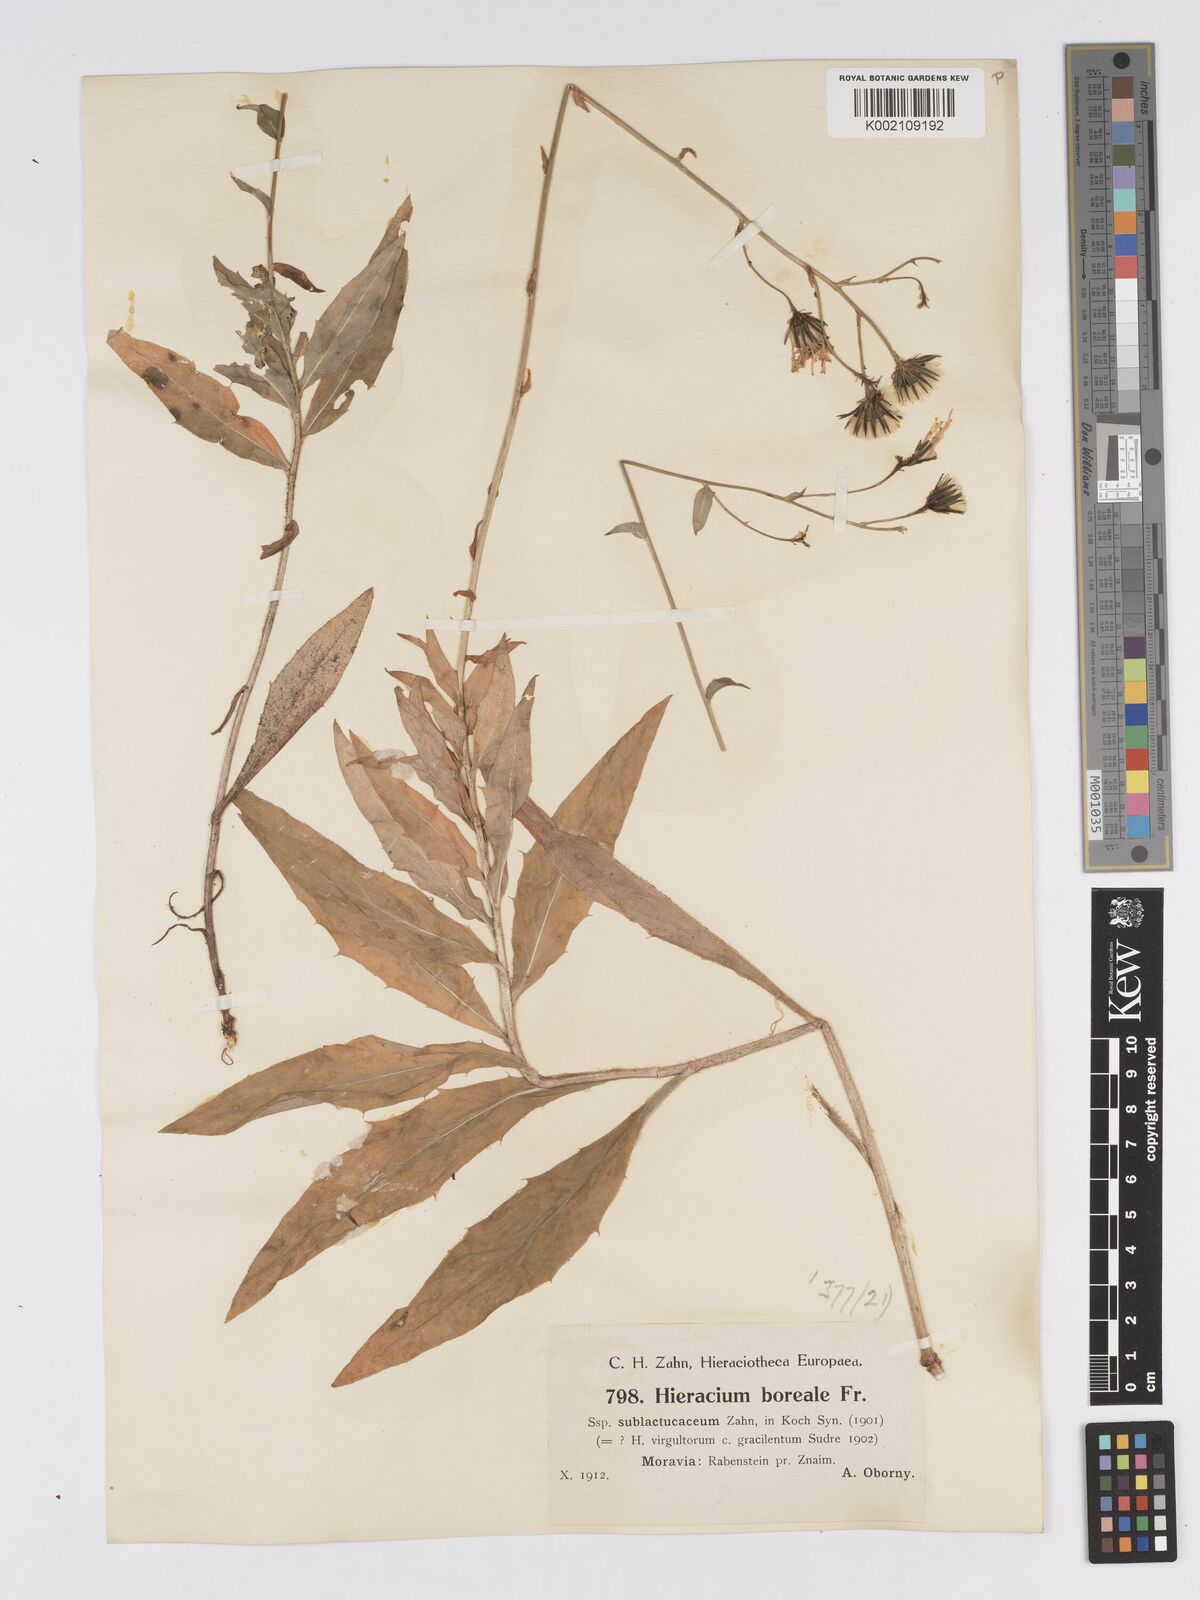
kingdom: Plantae
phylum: Tracheophyta
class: Magnoliopsida
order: Asterales
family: Asteraceae
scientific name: Asteraceae
